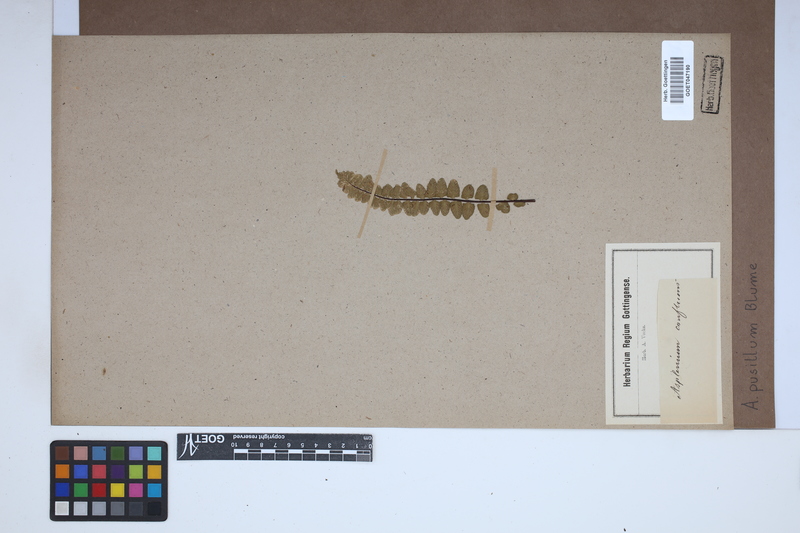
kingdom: Plantae
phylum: Tracheophyta
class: Polypodiopsida
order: Polypodiales
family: Athyriaceae
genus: Deparia
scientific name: Deparia confluens
